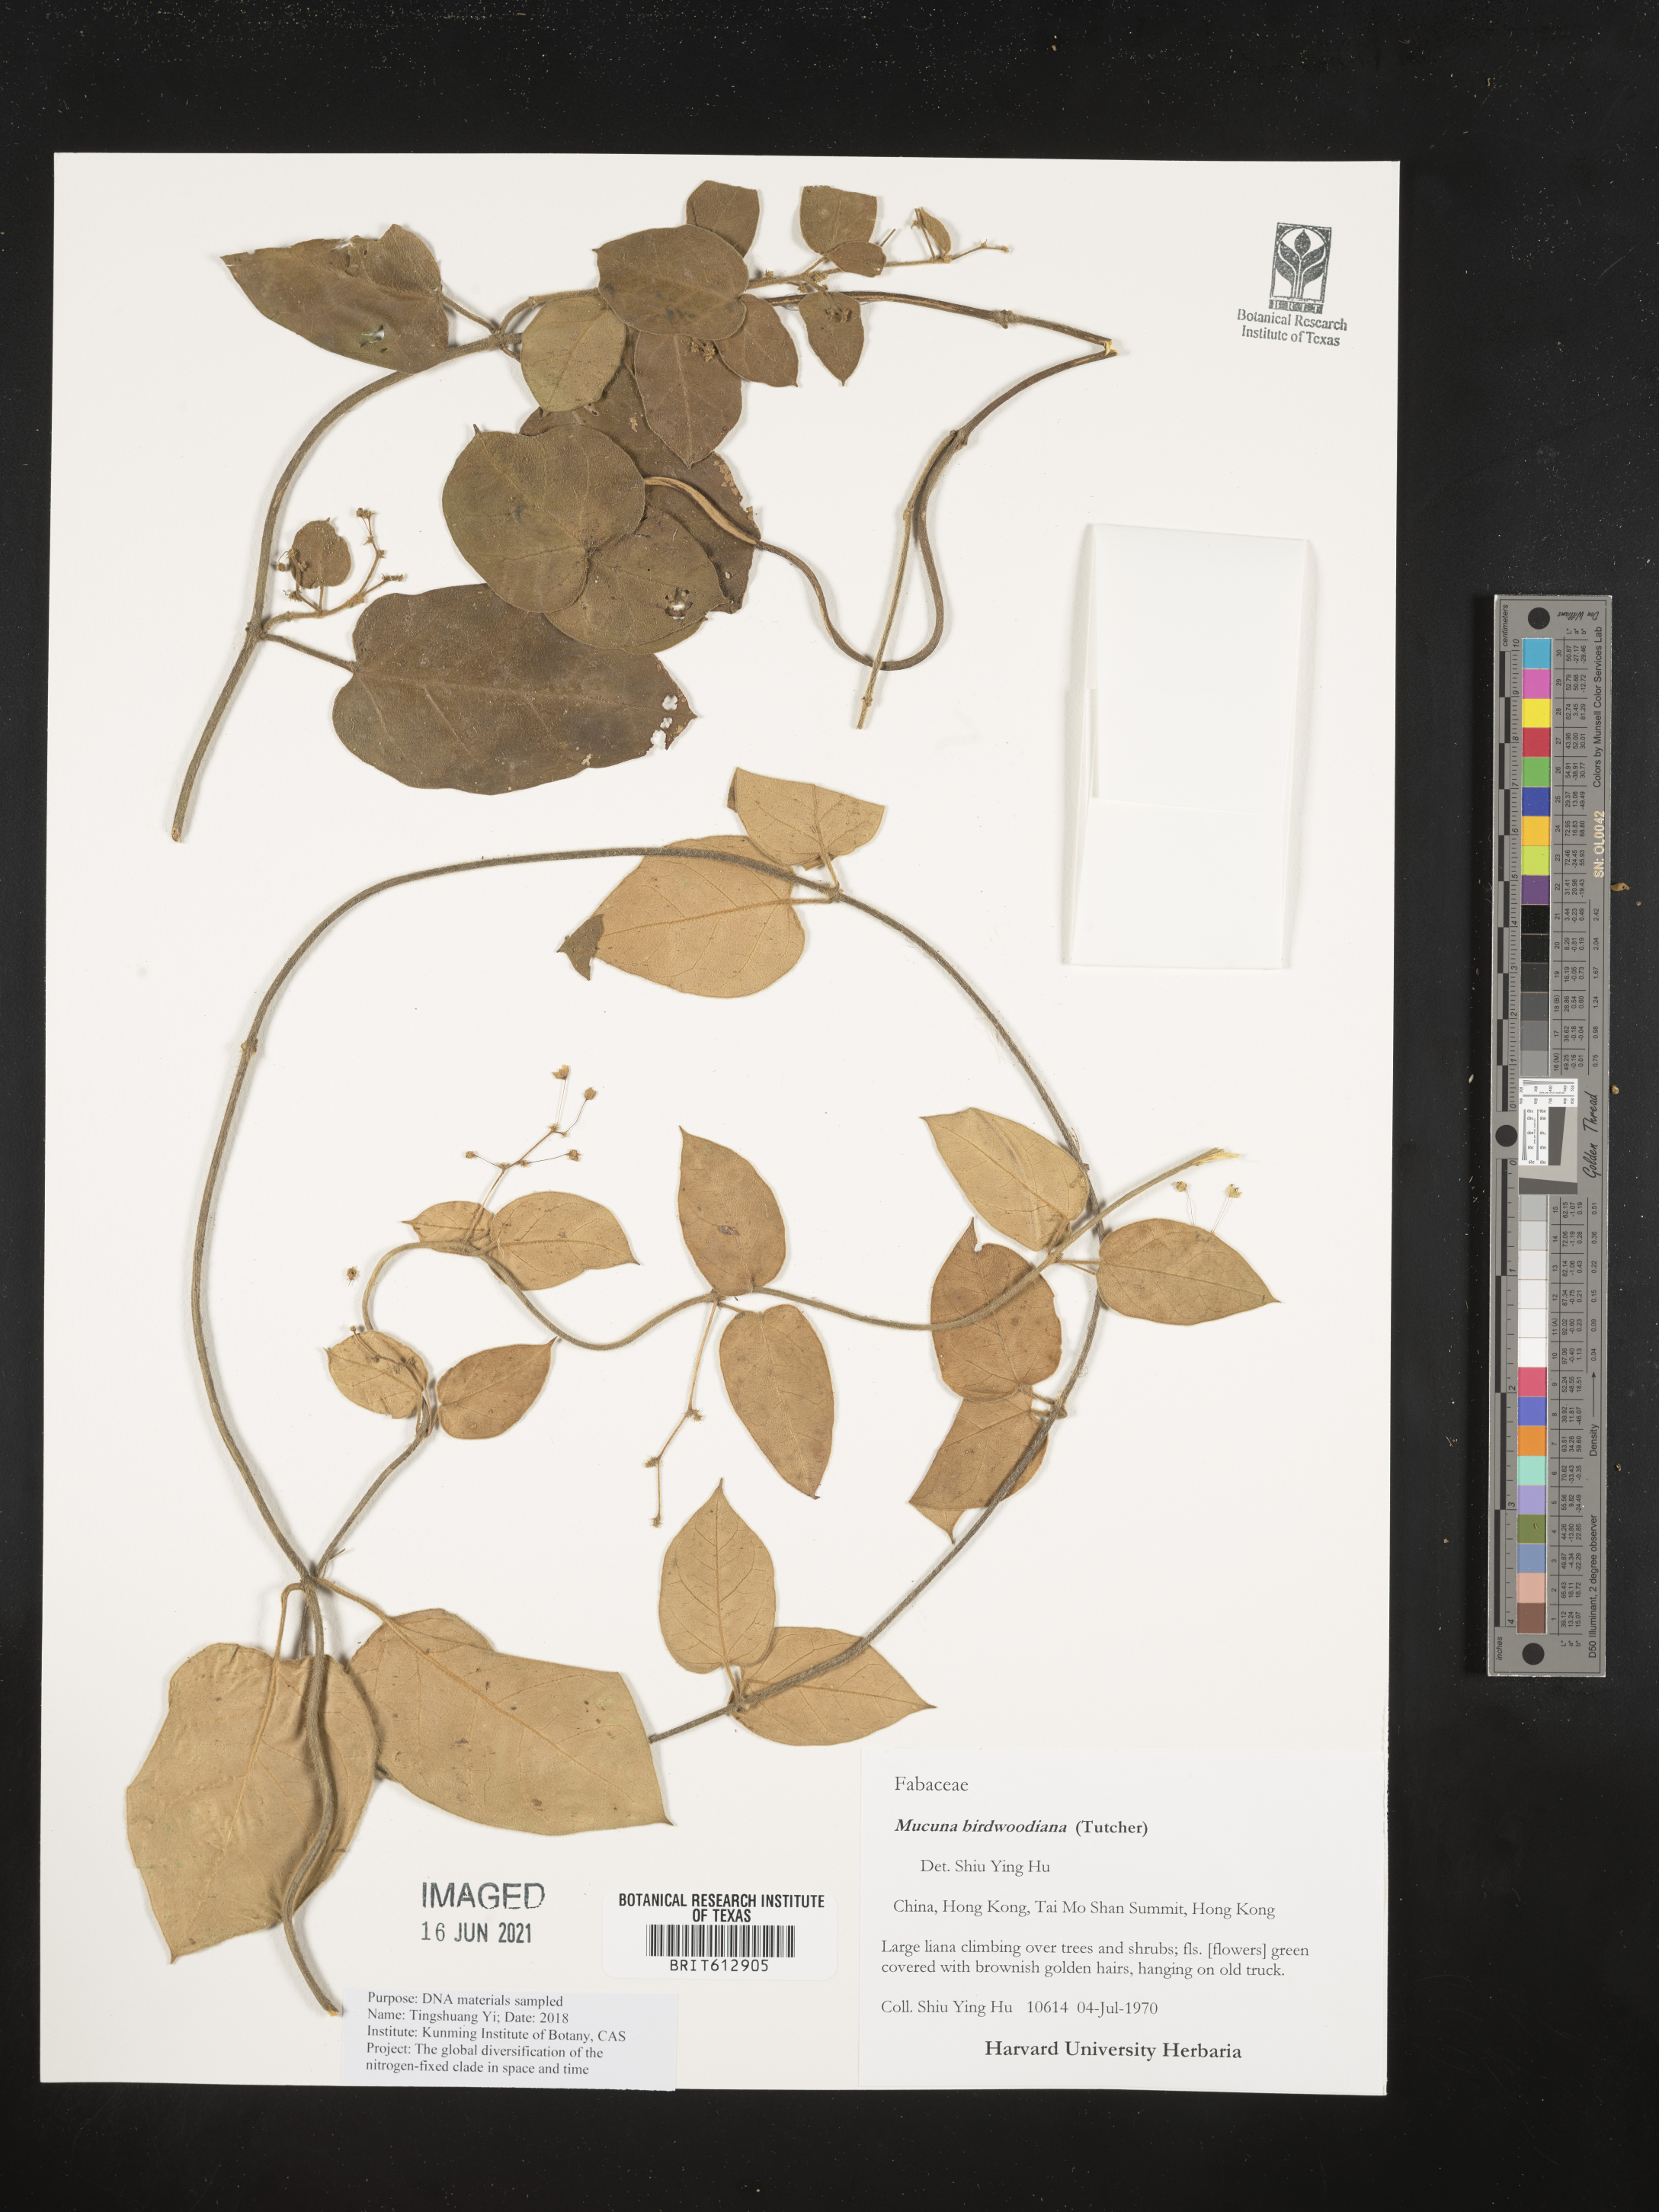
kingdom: Plantae
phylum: Tracheophyta
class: Magnoliopsida
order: Fabales
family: Fabaceae
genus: Mucuna
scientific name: Mucuna birdwoodiana
